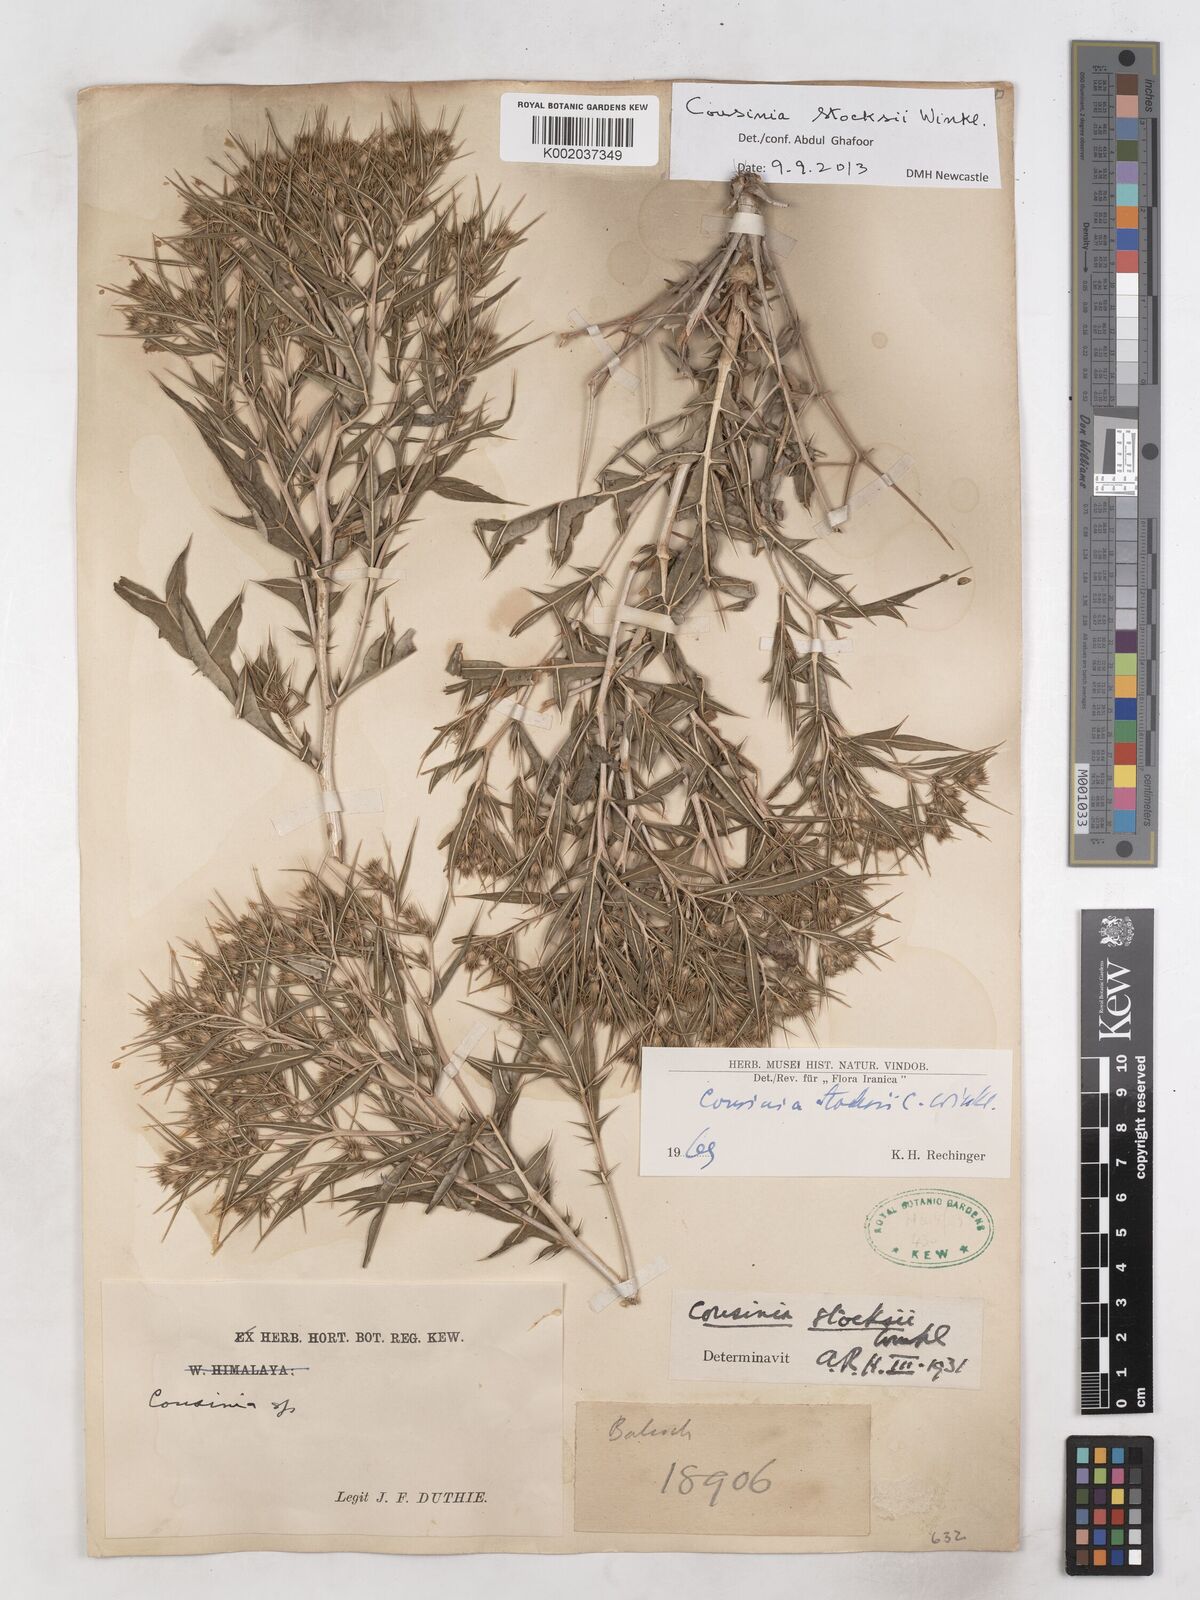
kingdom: Plantae
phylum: Tracheophyta
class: Magnoliopsida
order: Asterales
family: Asteraceae
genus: Cousinia
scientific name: Cousinia stocksii
